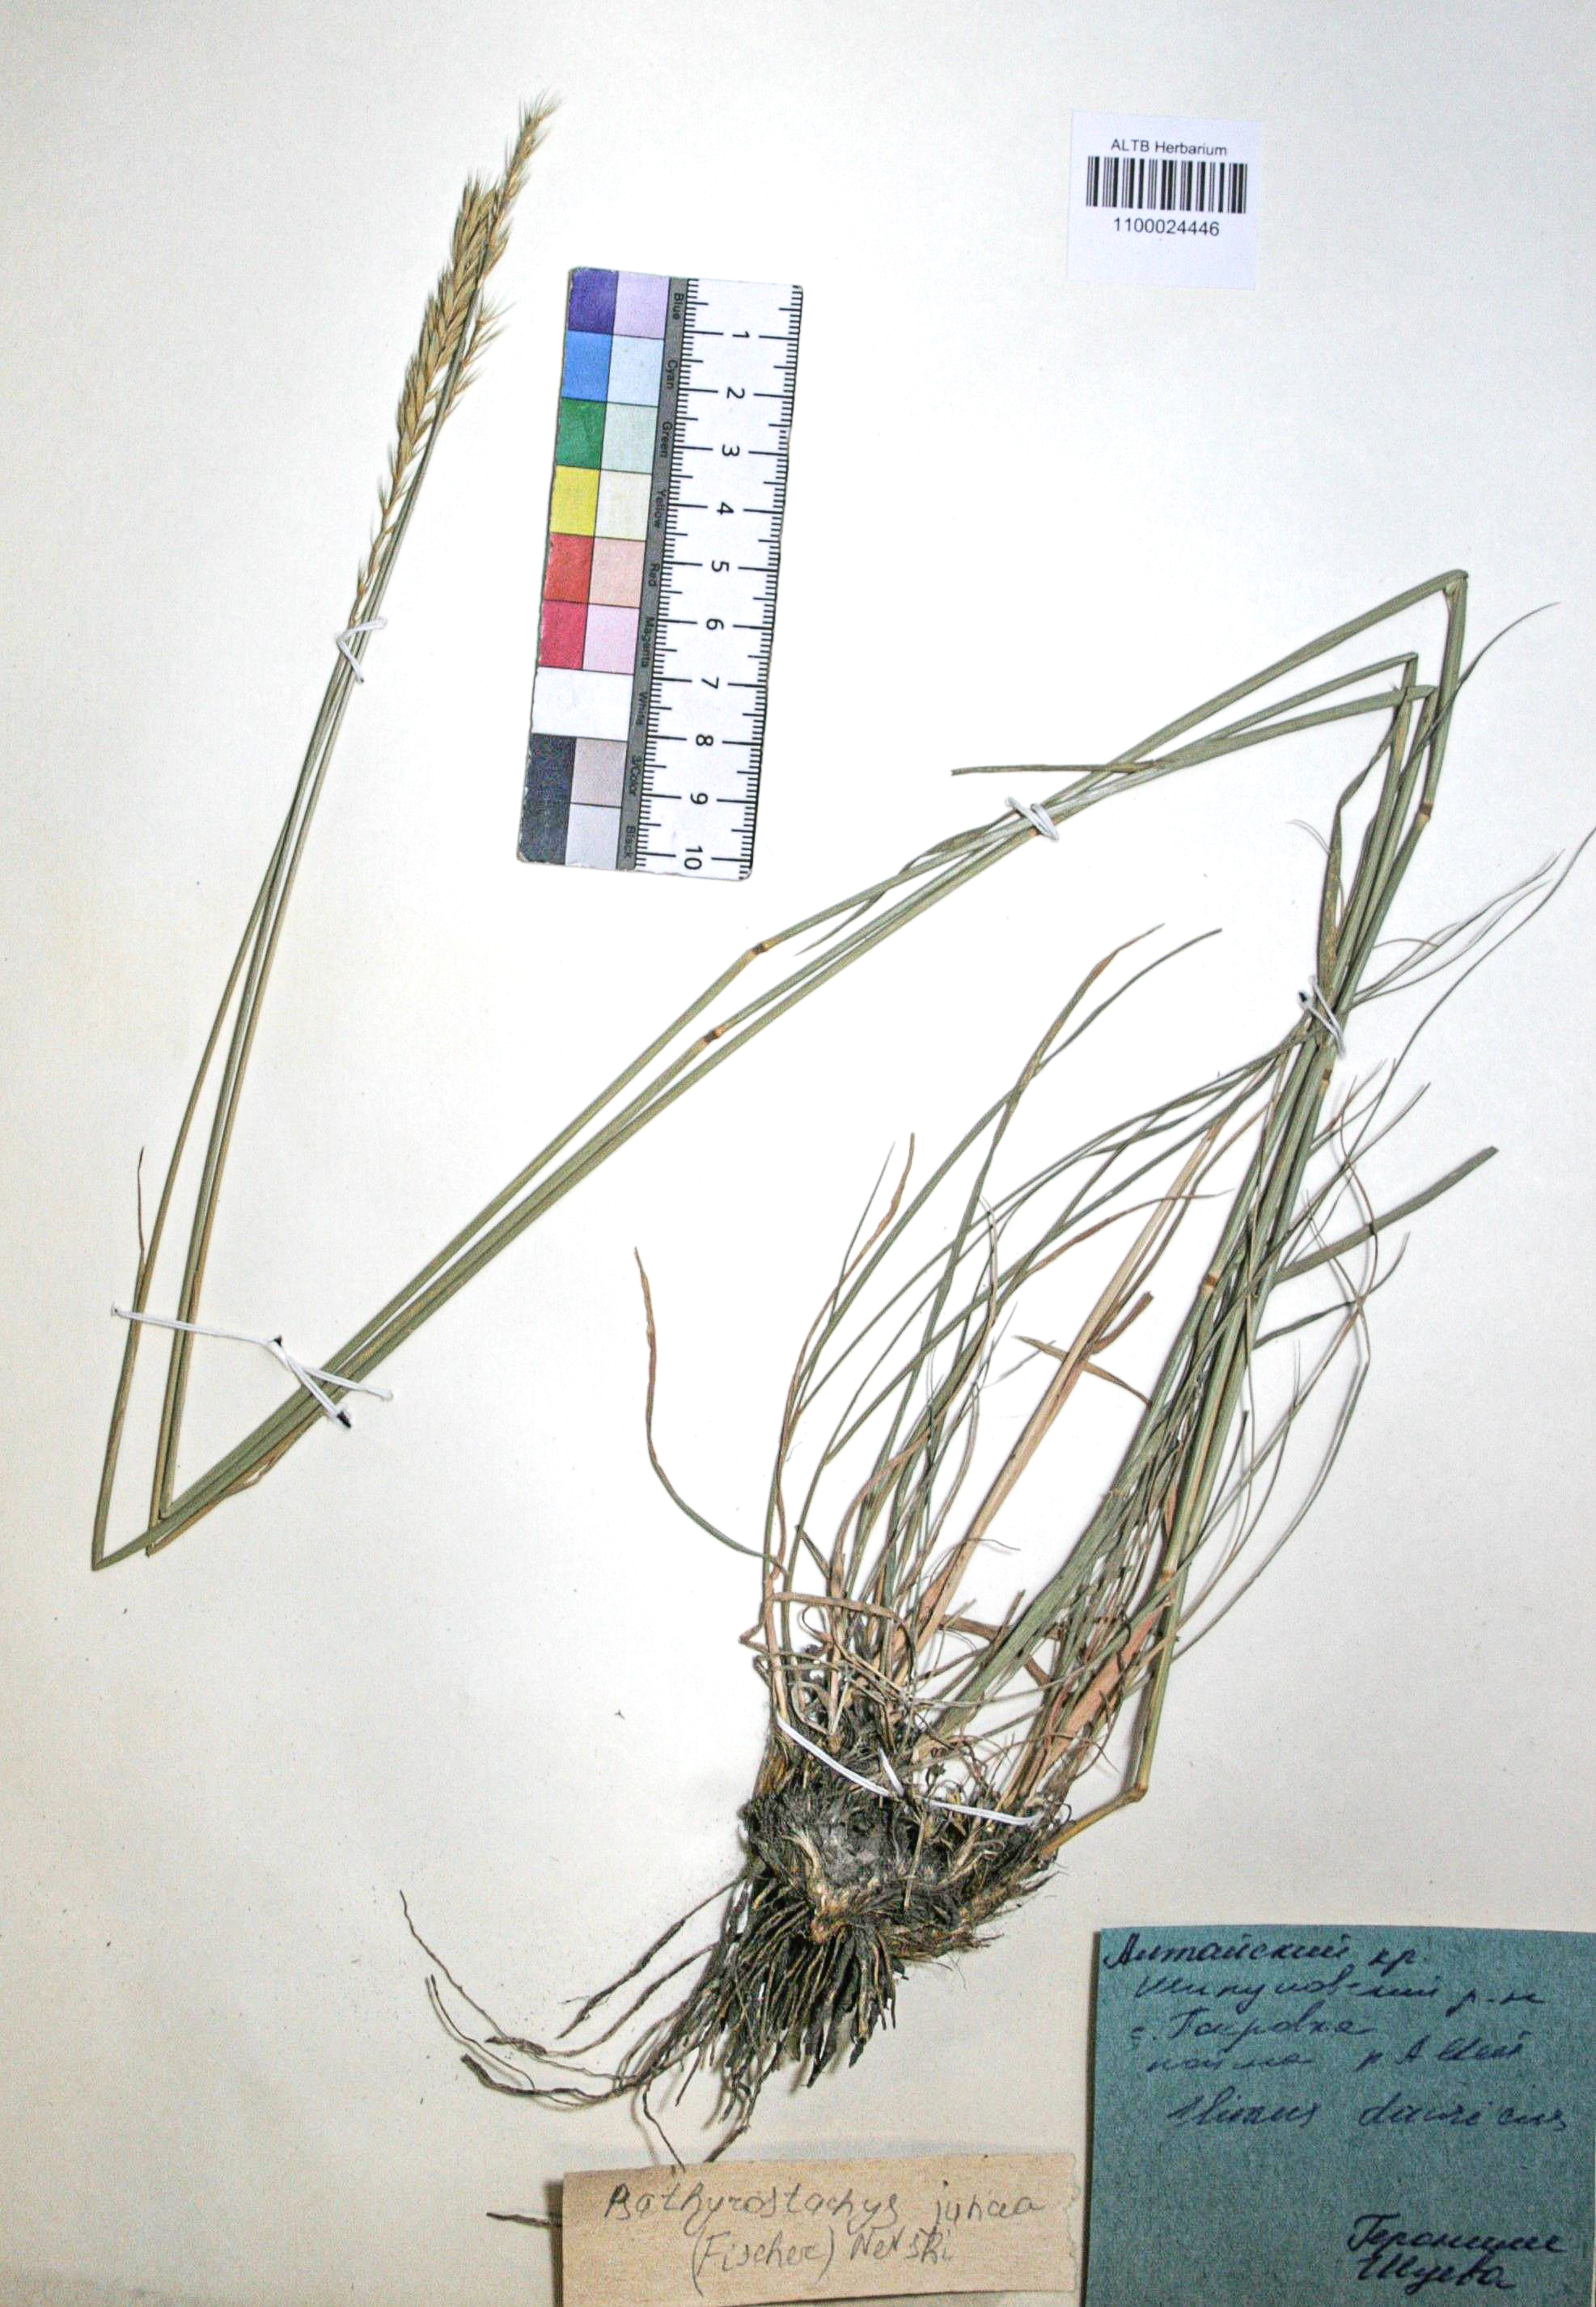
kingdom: Plantae
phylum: Tracheophyta
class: Liliopsida
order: Poales
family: Poaceae
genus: Psathyrostachys
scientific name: Psathyrostachys juncea
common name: Russian wildrye
